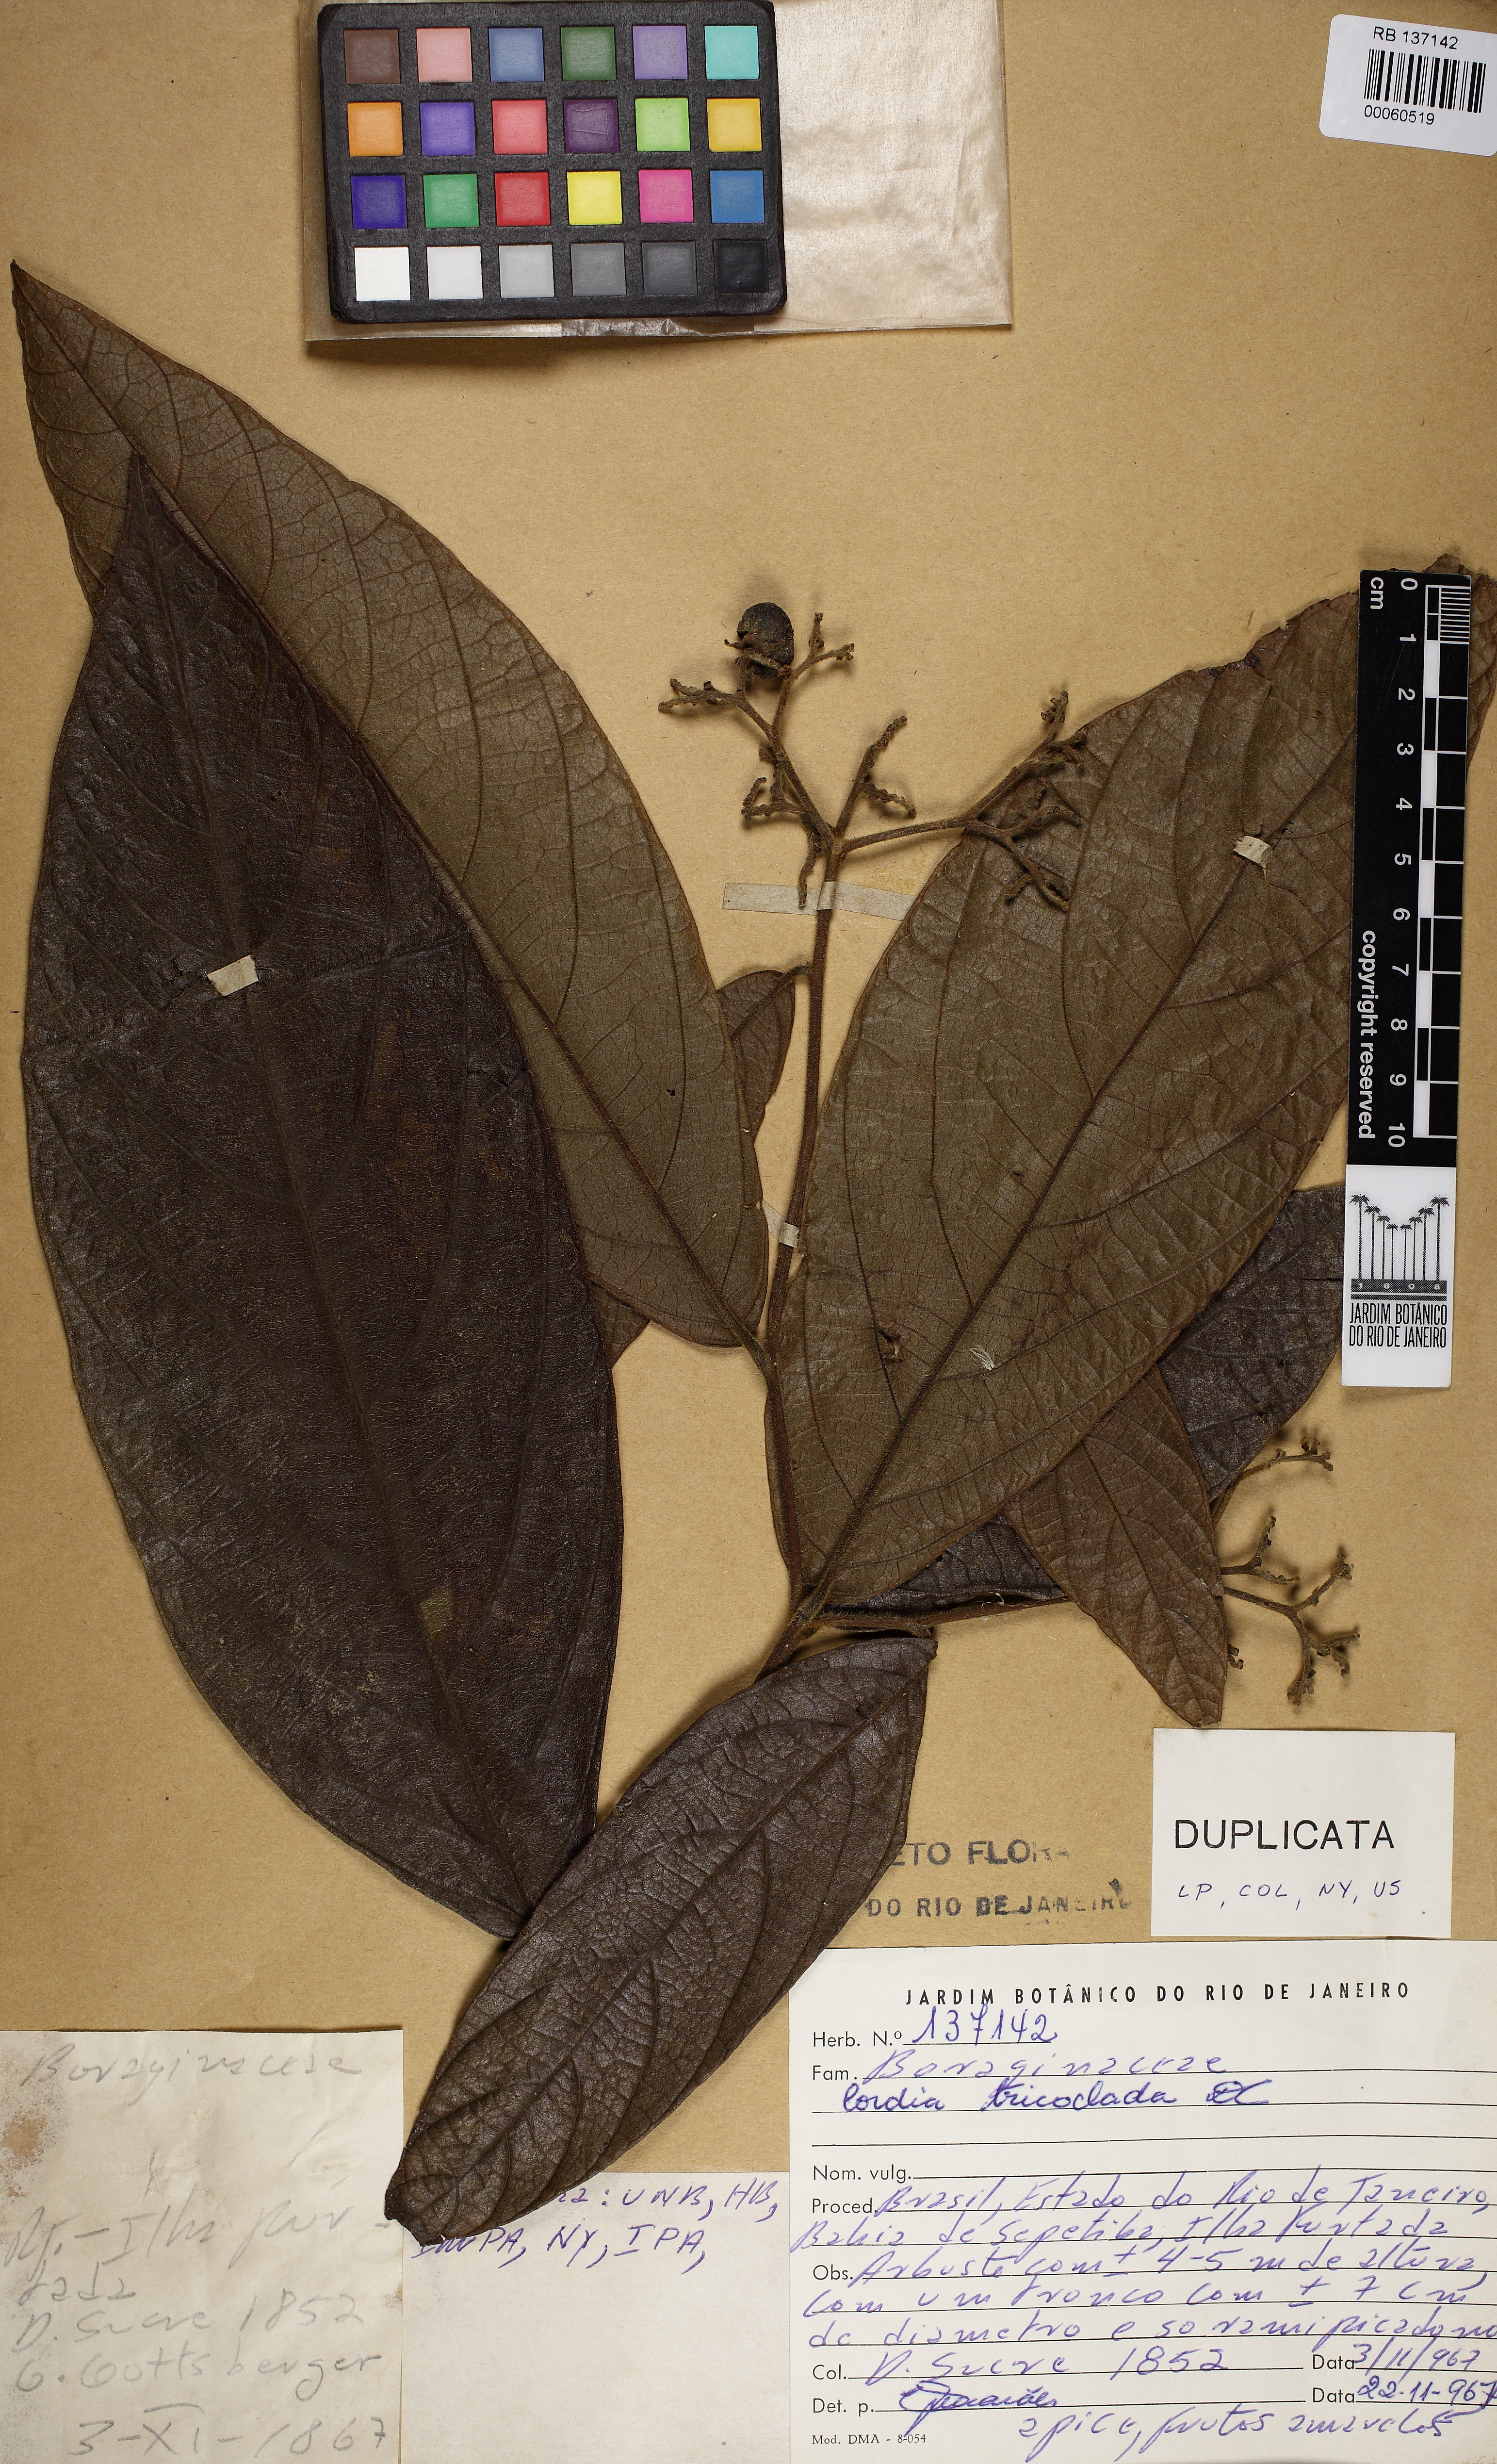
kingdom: Plantae
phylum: Tracheophyta
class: Magnoliopsida
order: Boraginales
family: Cordiaceae
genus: Cordia
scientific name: Cordia trichoclada
